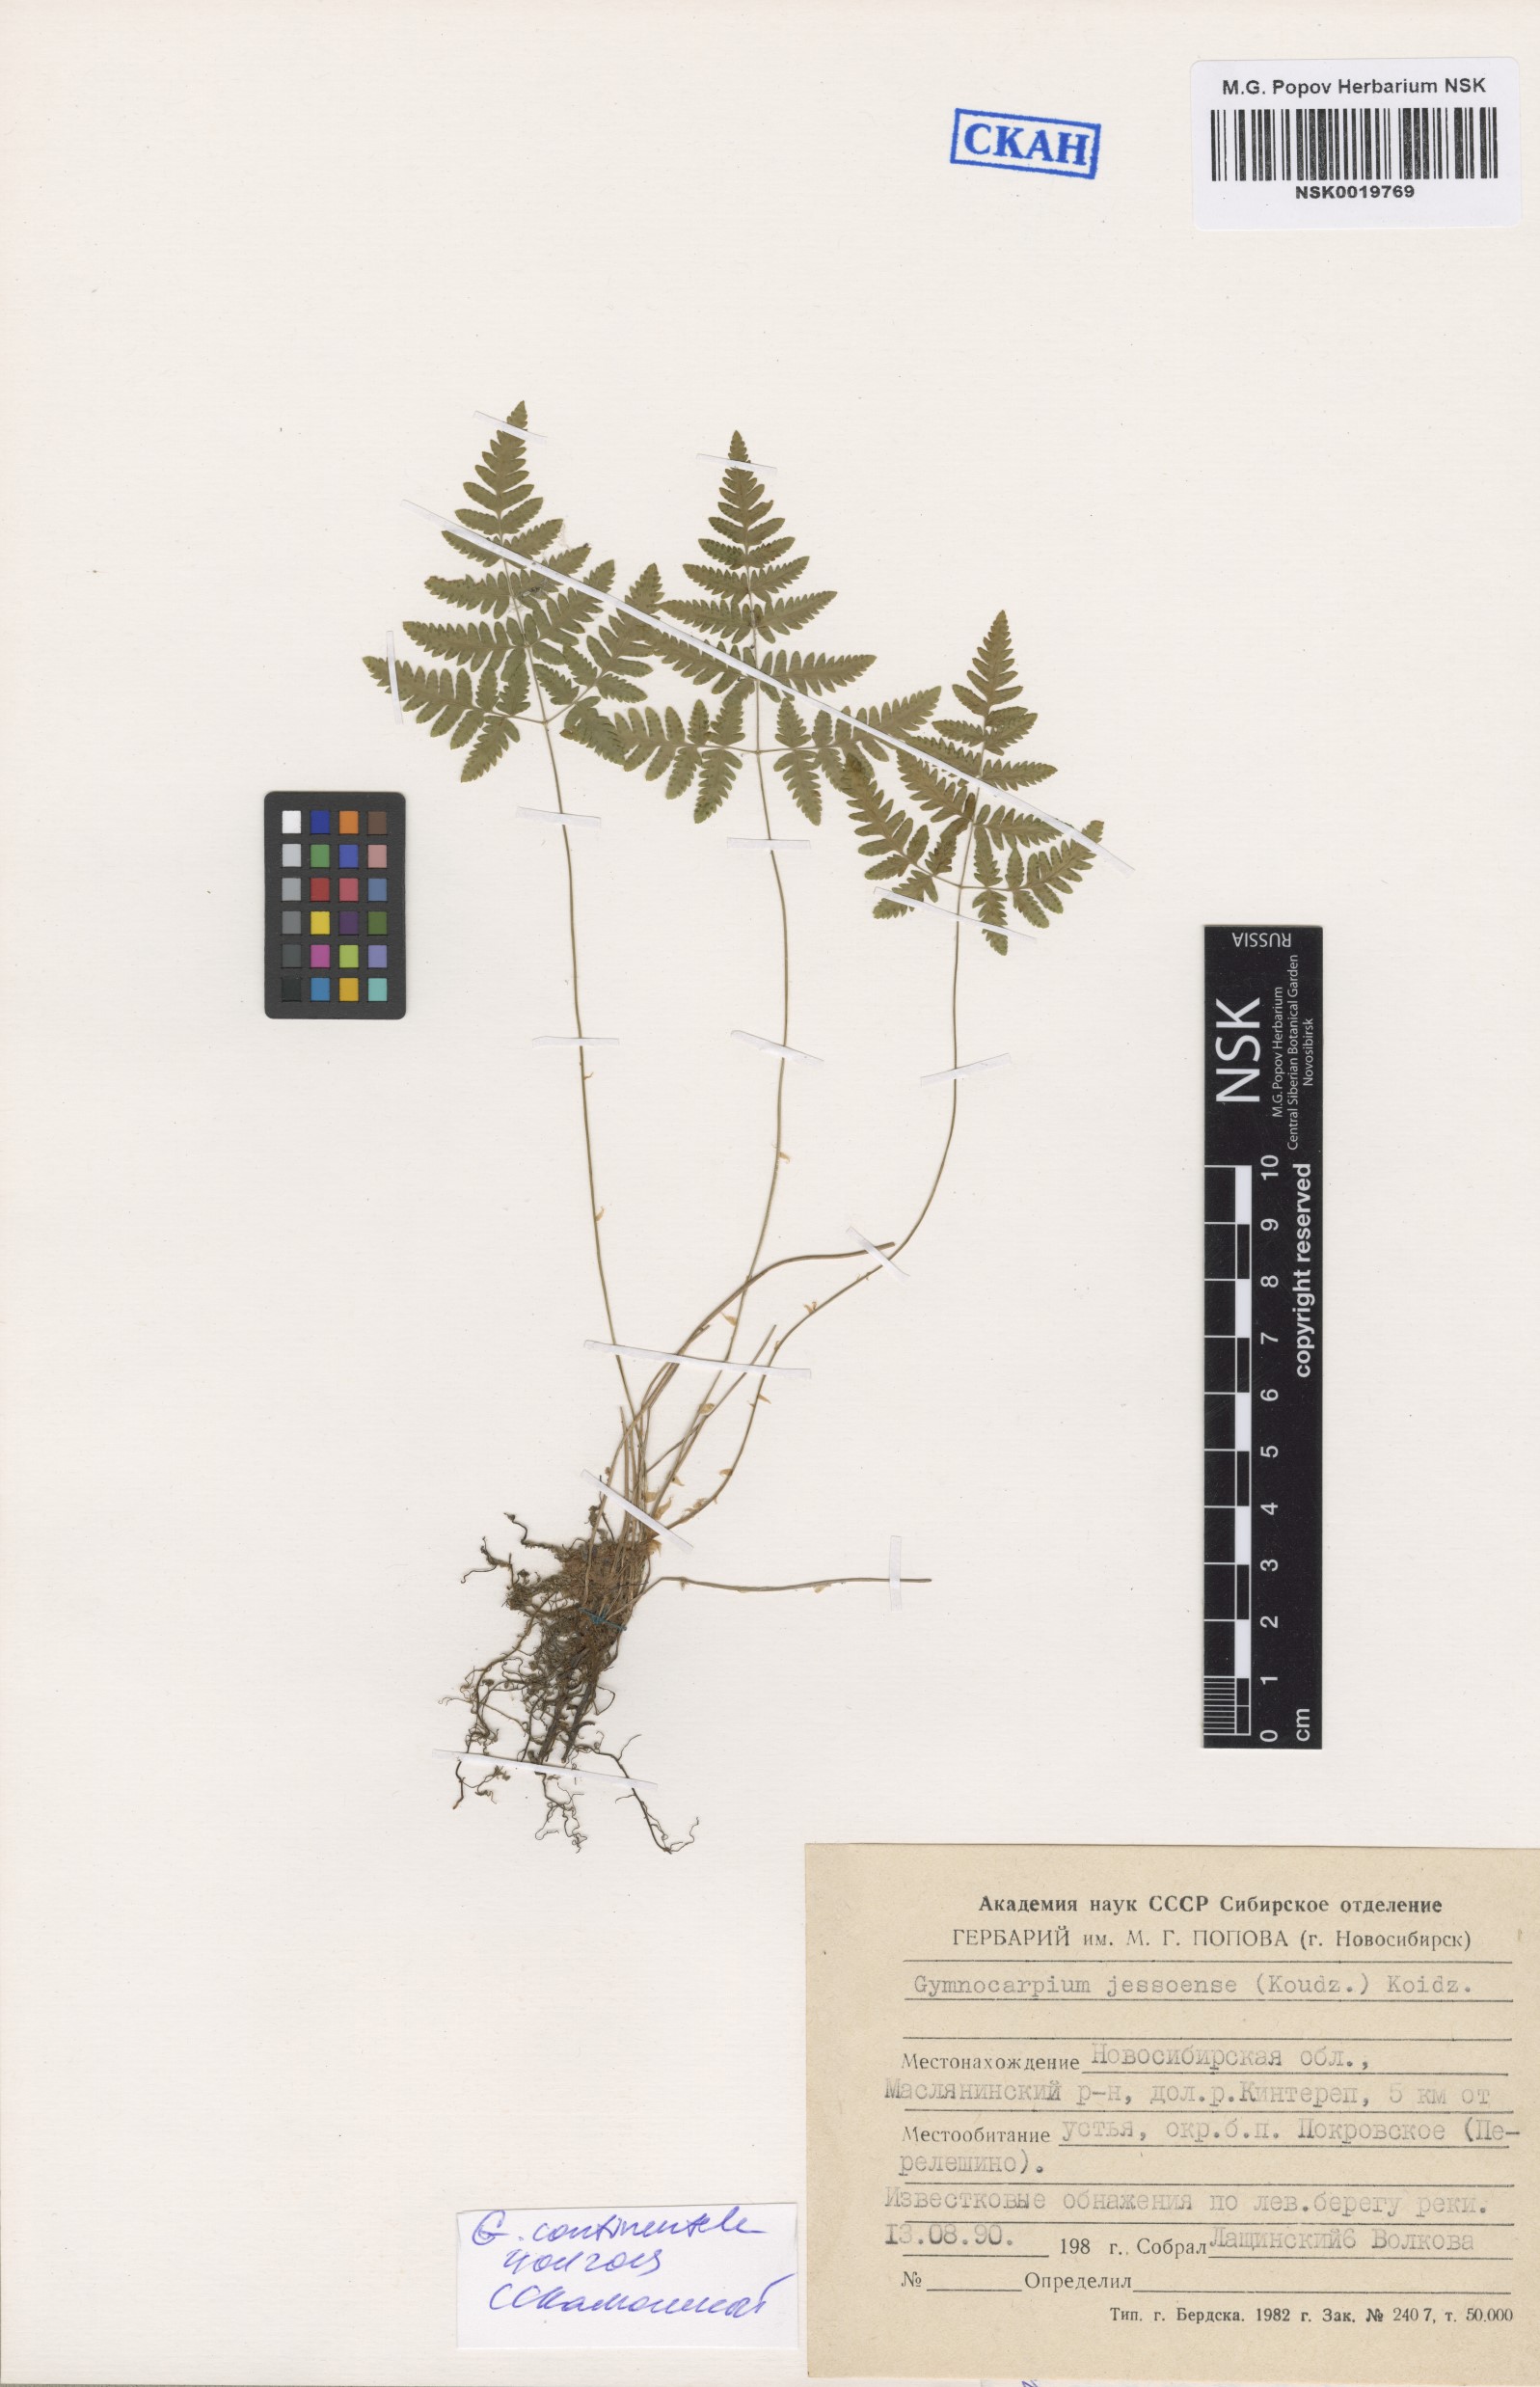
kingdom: Plantae
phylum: Tracheophyta
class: Polypodiopsida
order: Polypodiales
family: Cystopteridaceae
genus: Gymnocarpium
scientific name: Gymnocarpium continentale
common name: Asian oak fern
